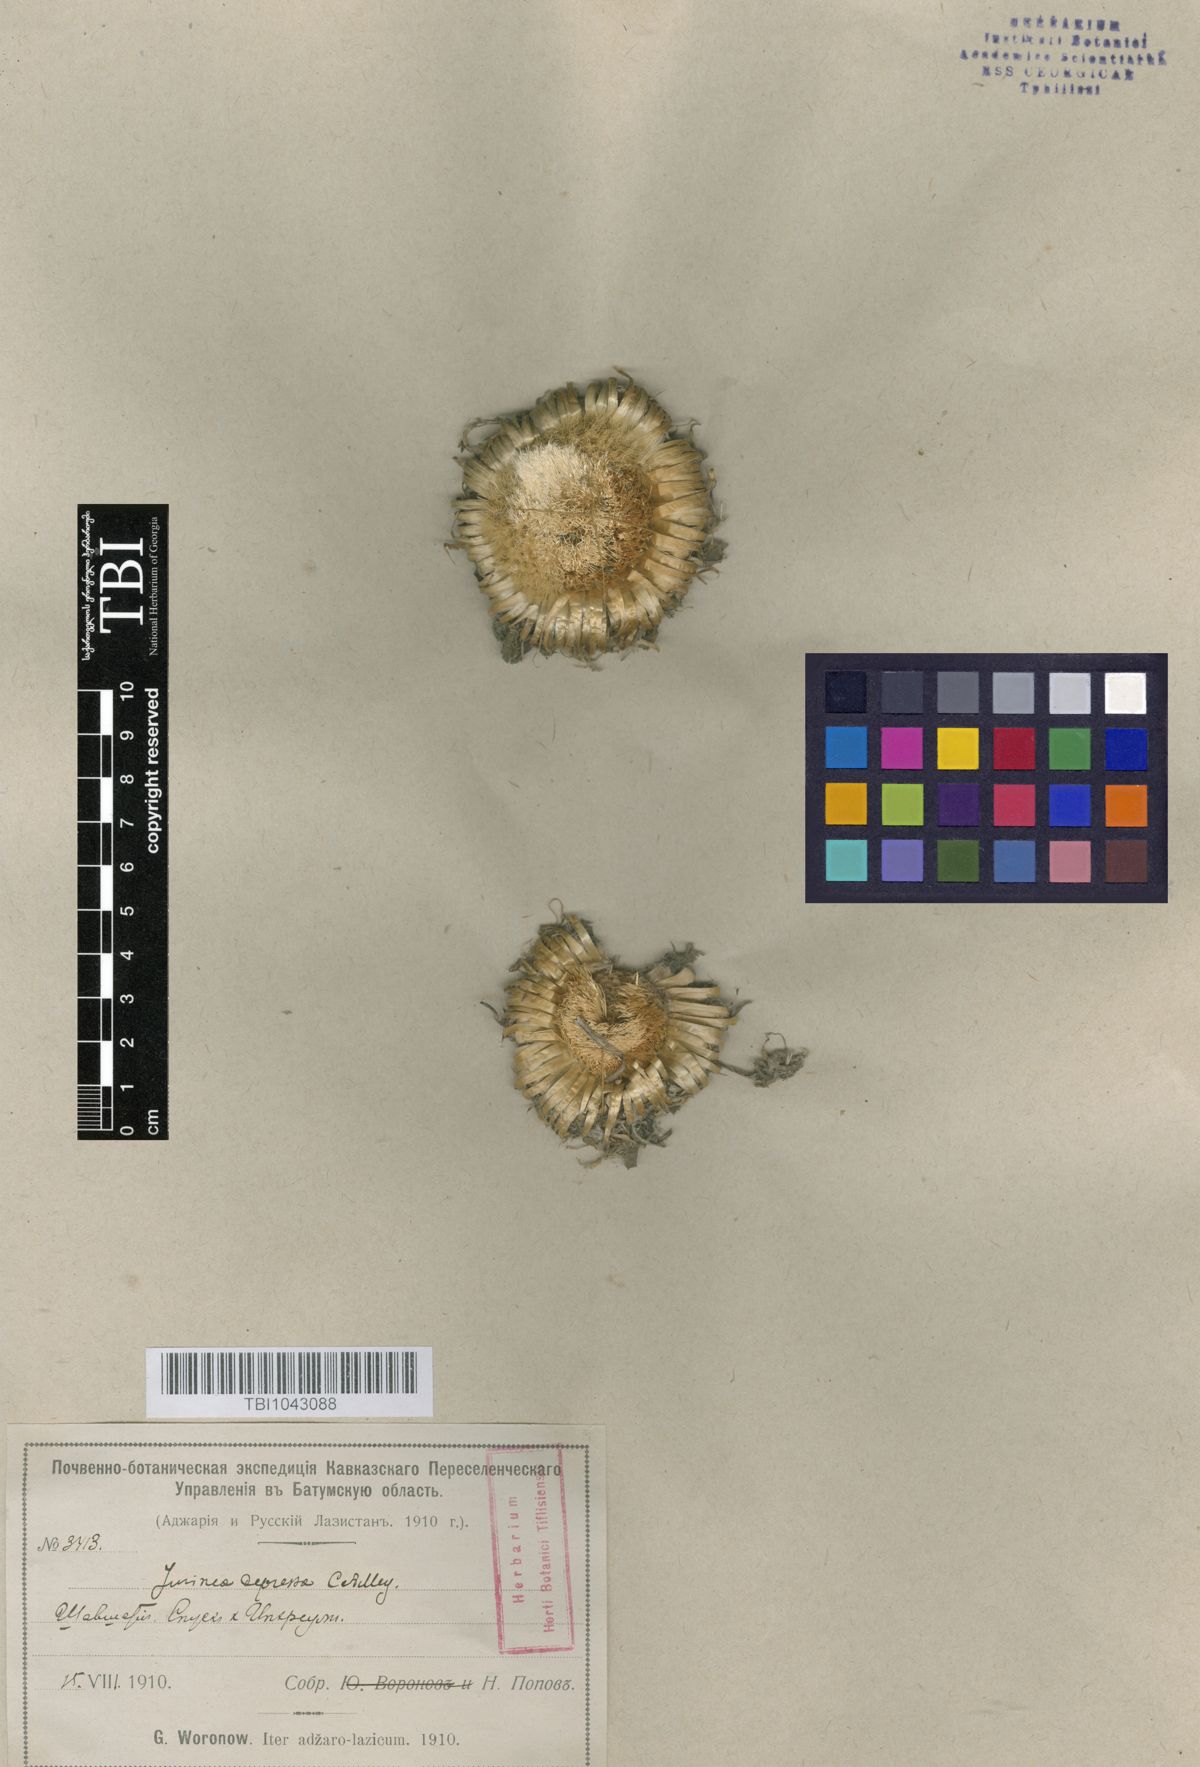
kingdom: Plantae
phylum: Tracheophyta
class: Magnoliopsida
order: Asterales
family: Asteraceae
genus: Jurinea
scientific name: Jurinea moschus
